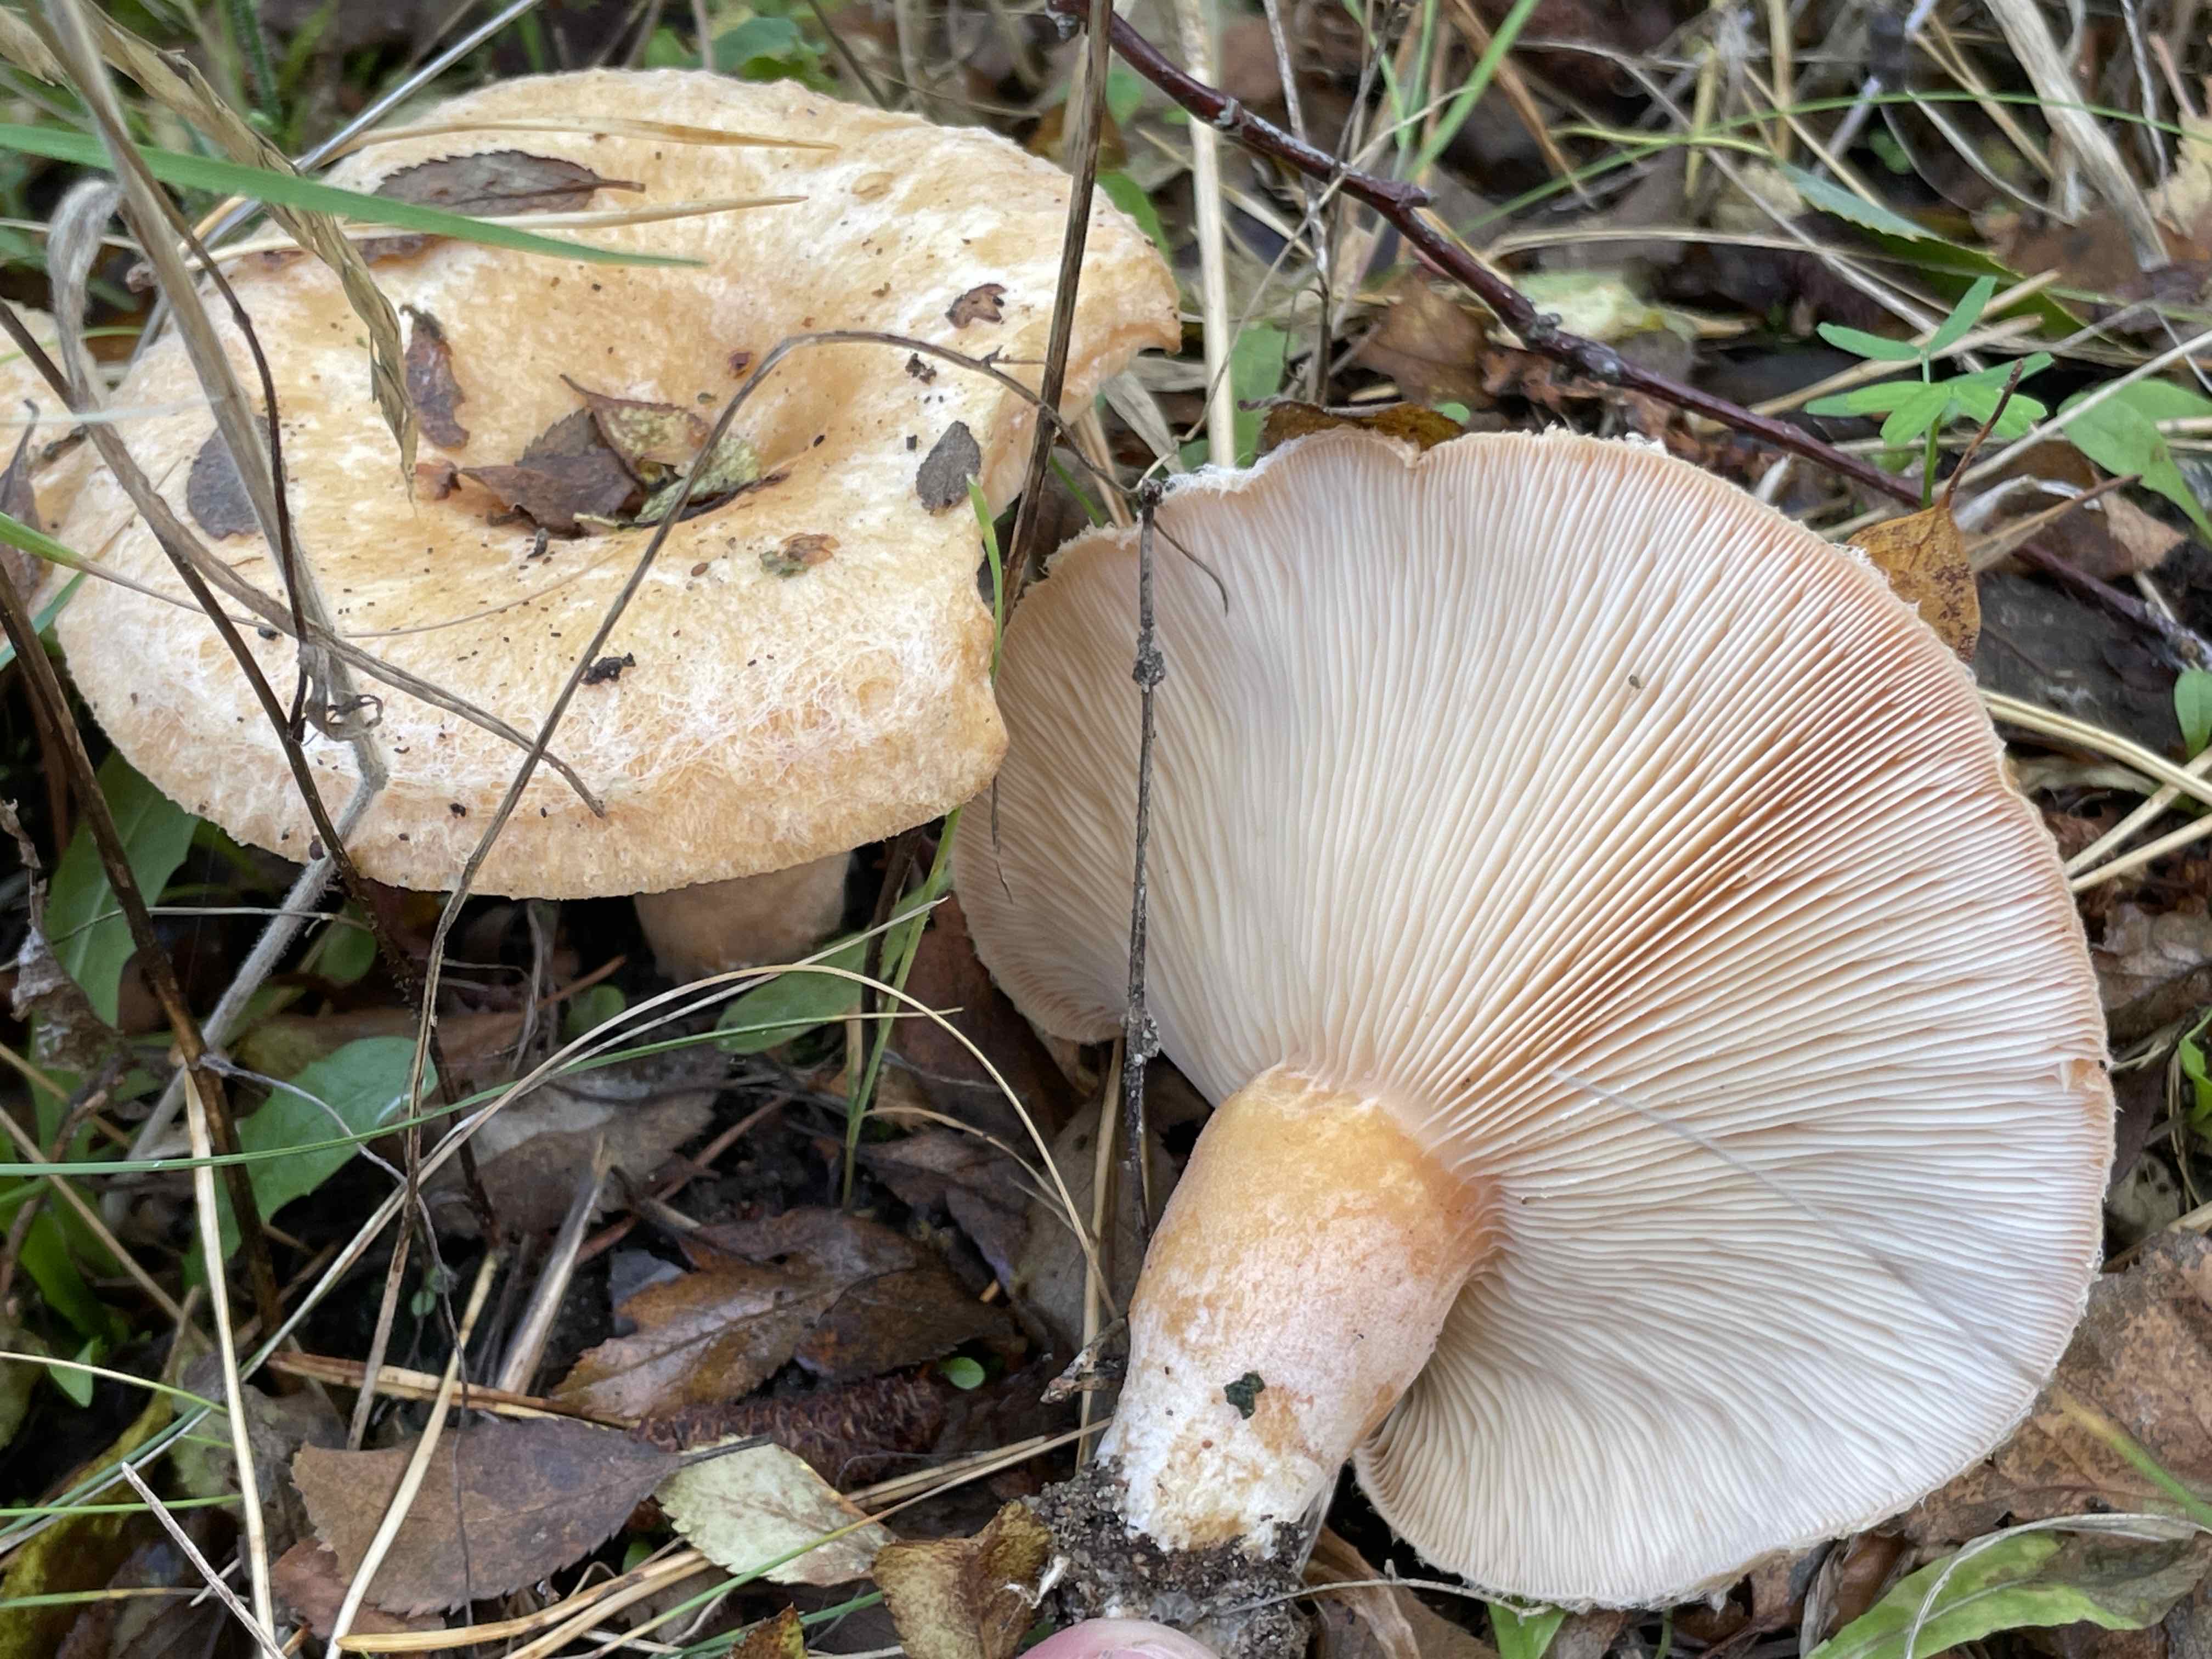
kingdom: Fungi
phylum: Basidiomycota
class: Agaricomycetes
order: Russulales
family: Russulaceae
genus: Lactarius
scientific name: Lactarius pubescens
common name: dunet mælkehat
